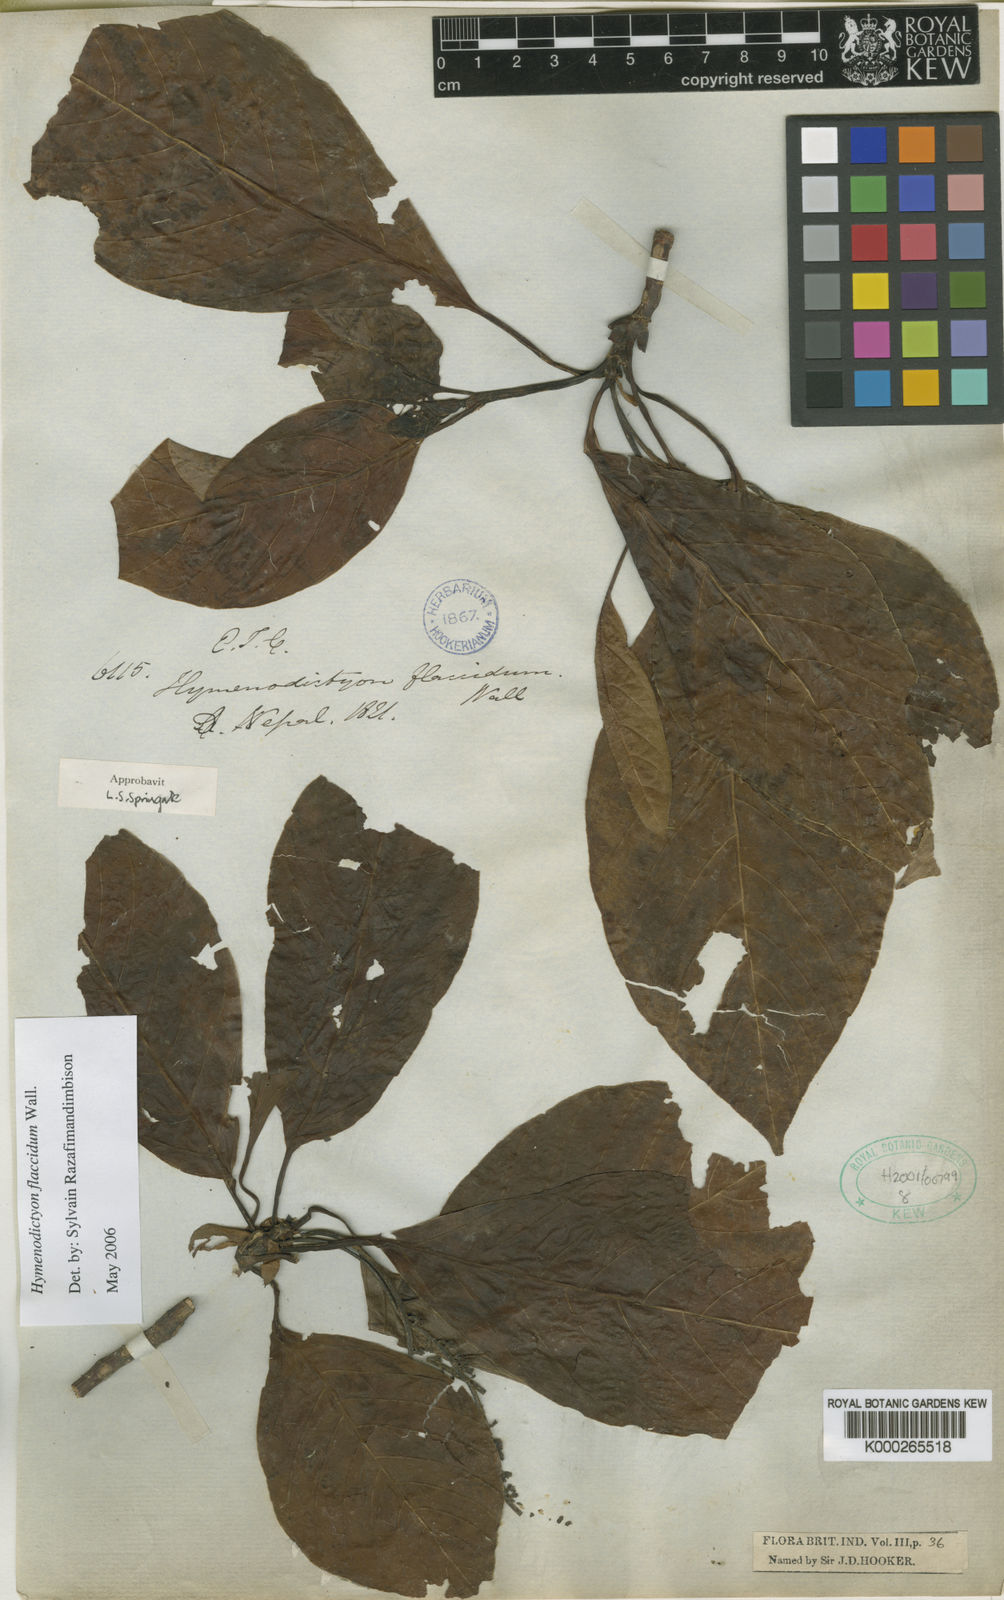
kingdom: Plantae
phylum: Tracheophyta
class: Magnoliopsida
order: Gentianales
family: Rubiaceae
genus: Hymenodictyon
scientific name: Hymenodictyon flaccidum
